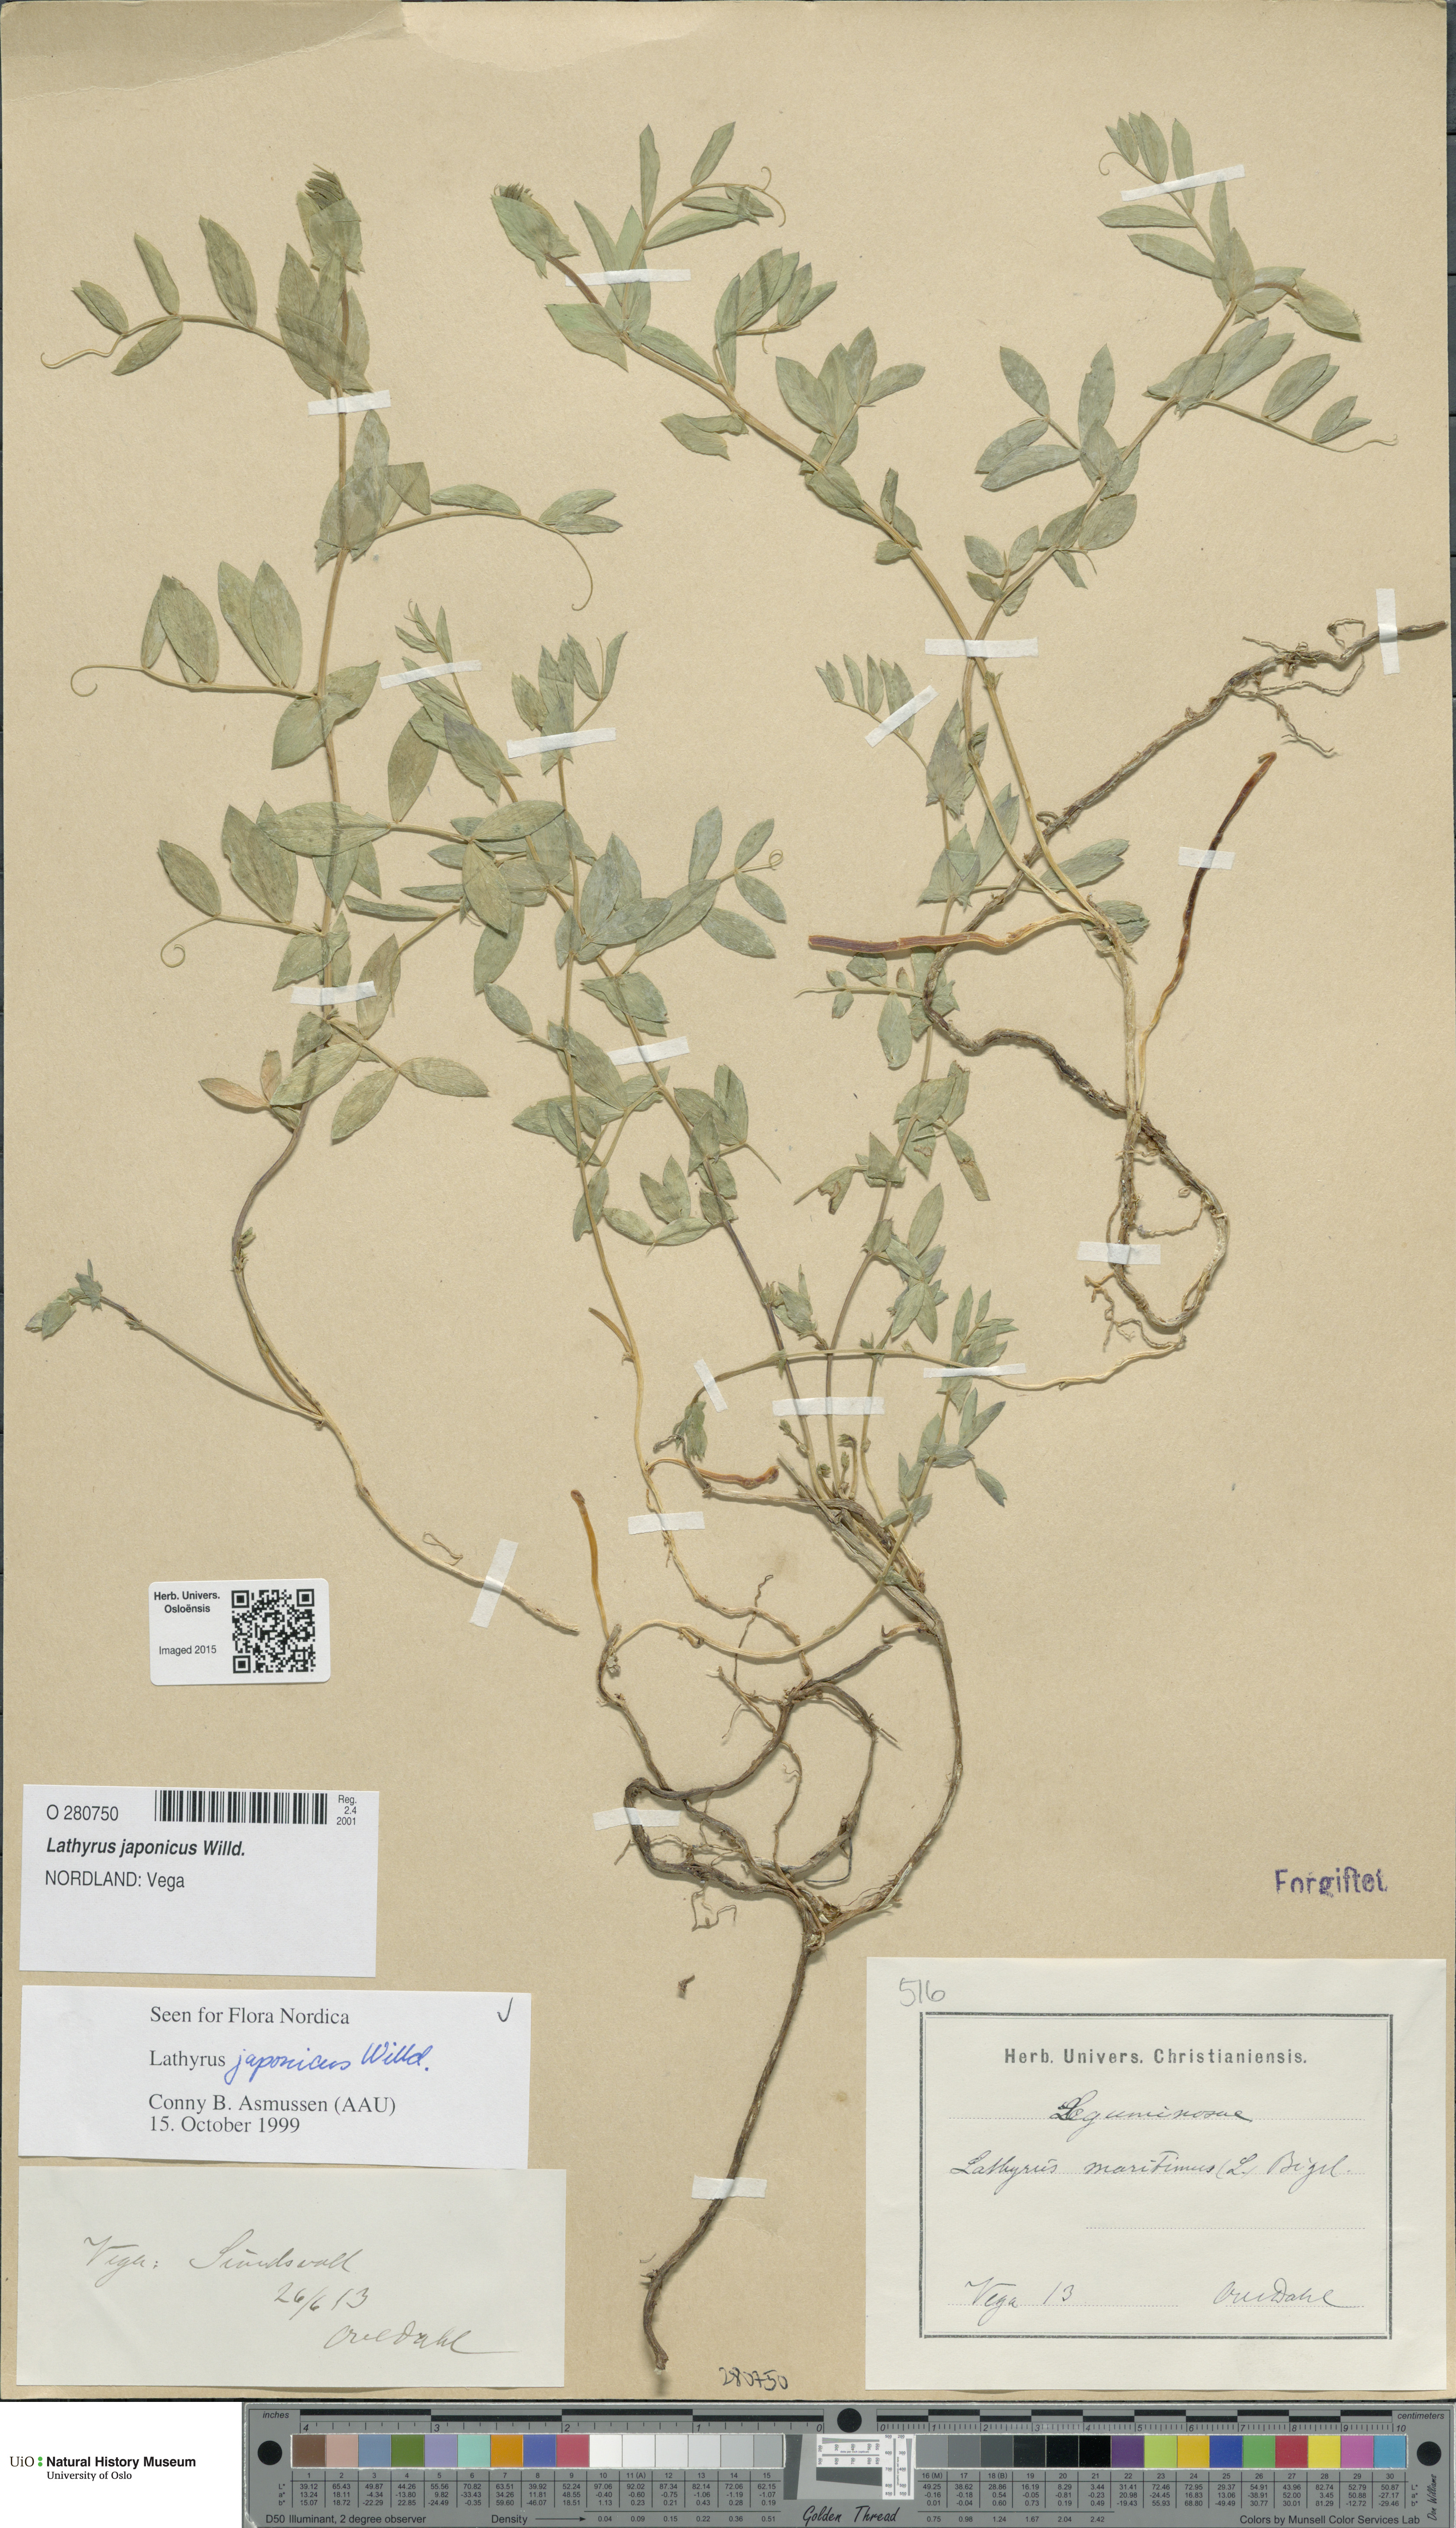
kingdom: Plantae
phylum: Tracheophyta
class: Magnoliopsida
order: Fabales
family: Fabaceae
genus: Lathyrus
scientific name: Lathyrus japonicus
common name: Sea pea
